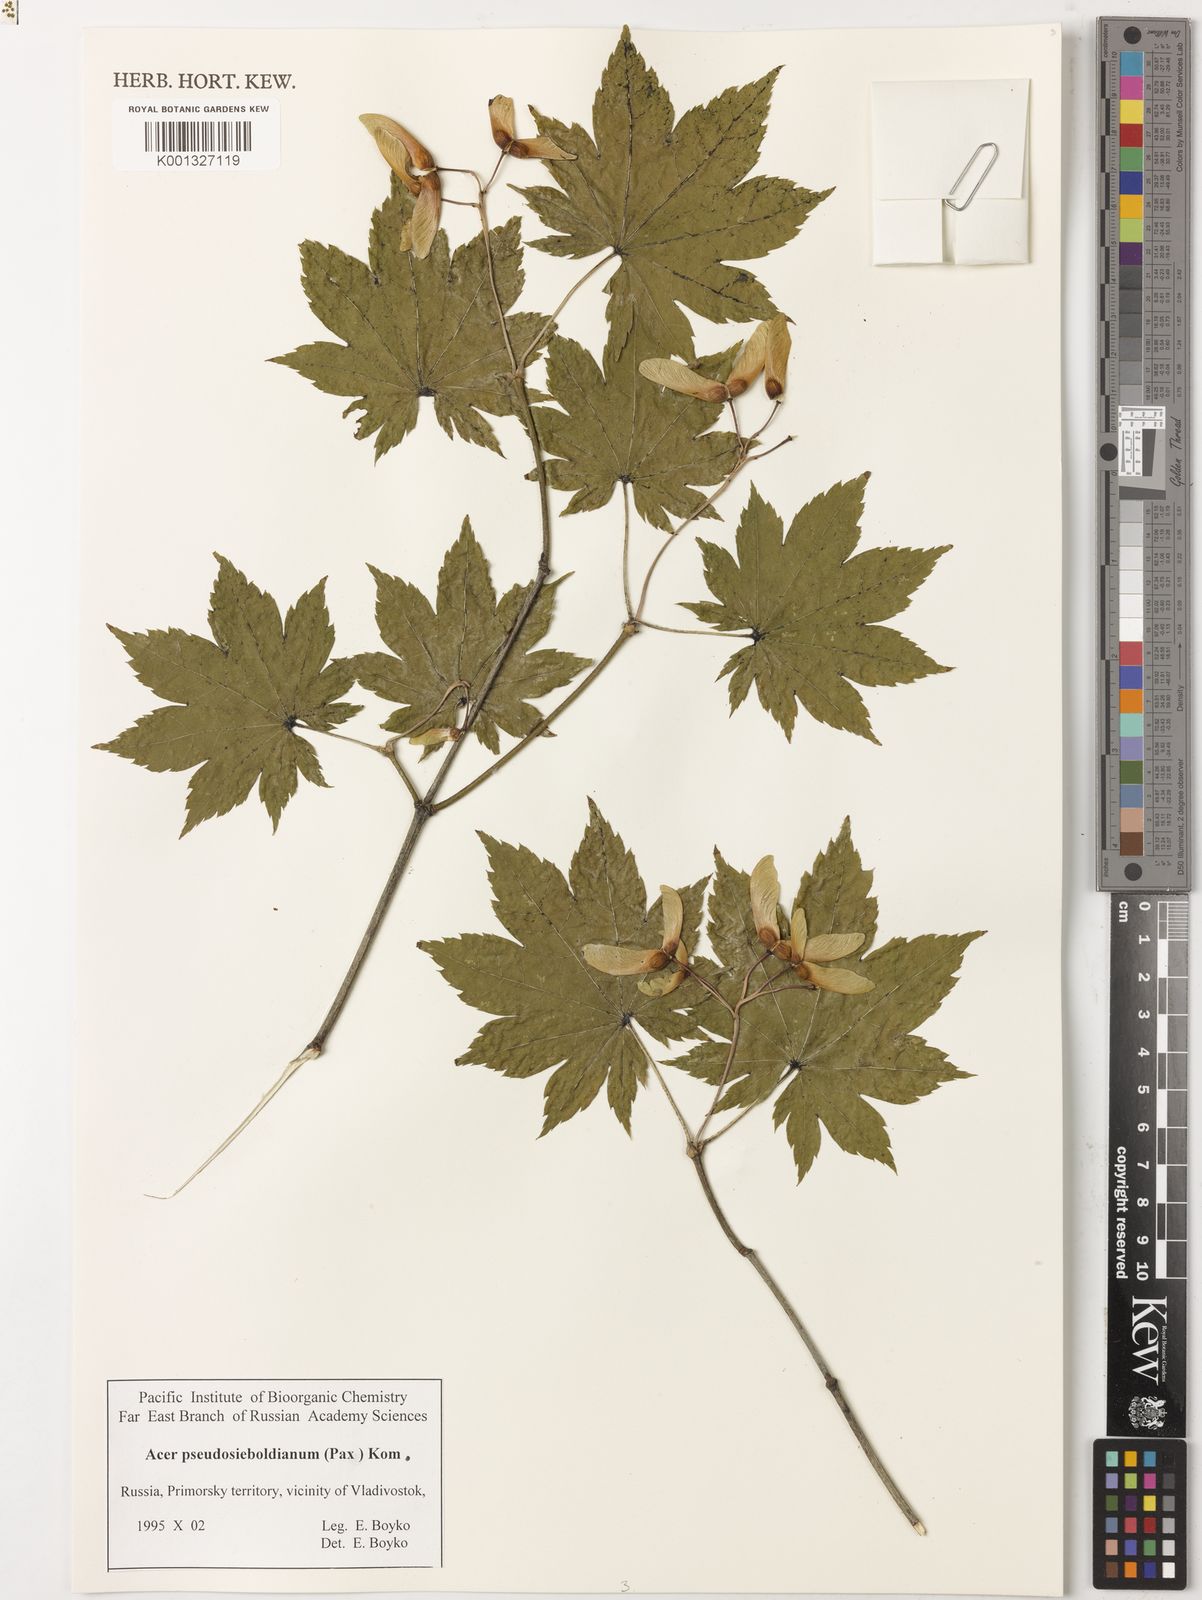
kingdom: Plantae
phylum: Tracheophyta
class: Magnoliopsida
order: Sapindales
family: Sapindaceae
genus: Acer
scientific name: Acer pseudosieboldianum
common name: Korean maple
